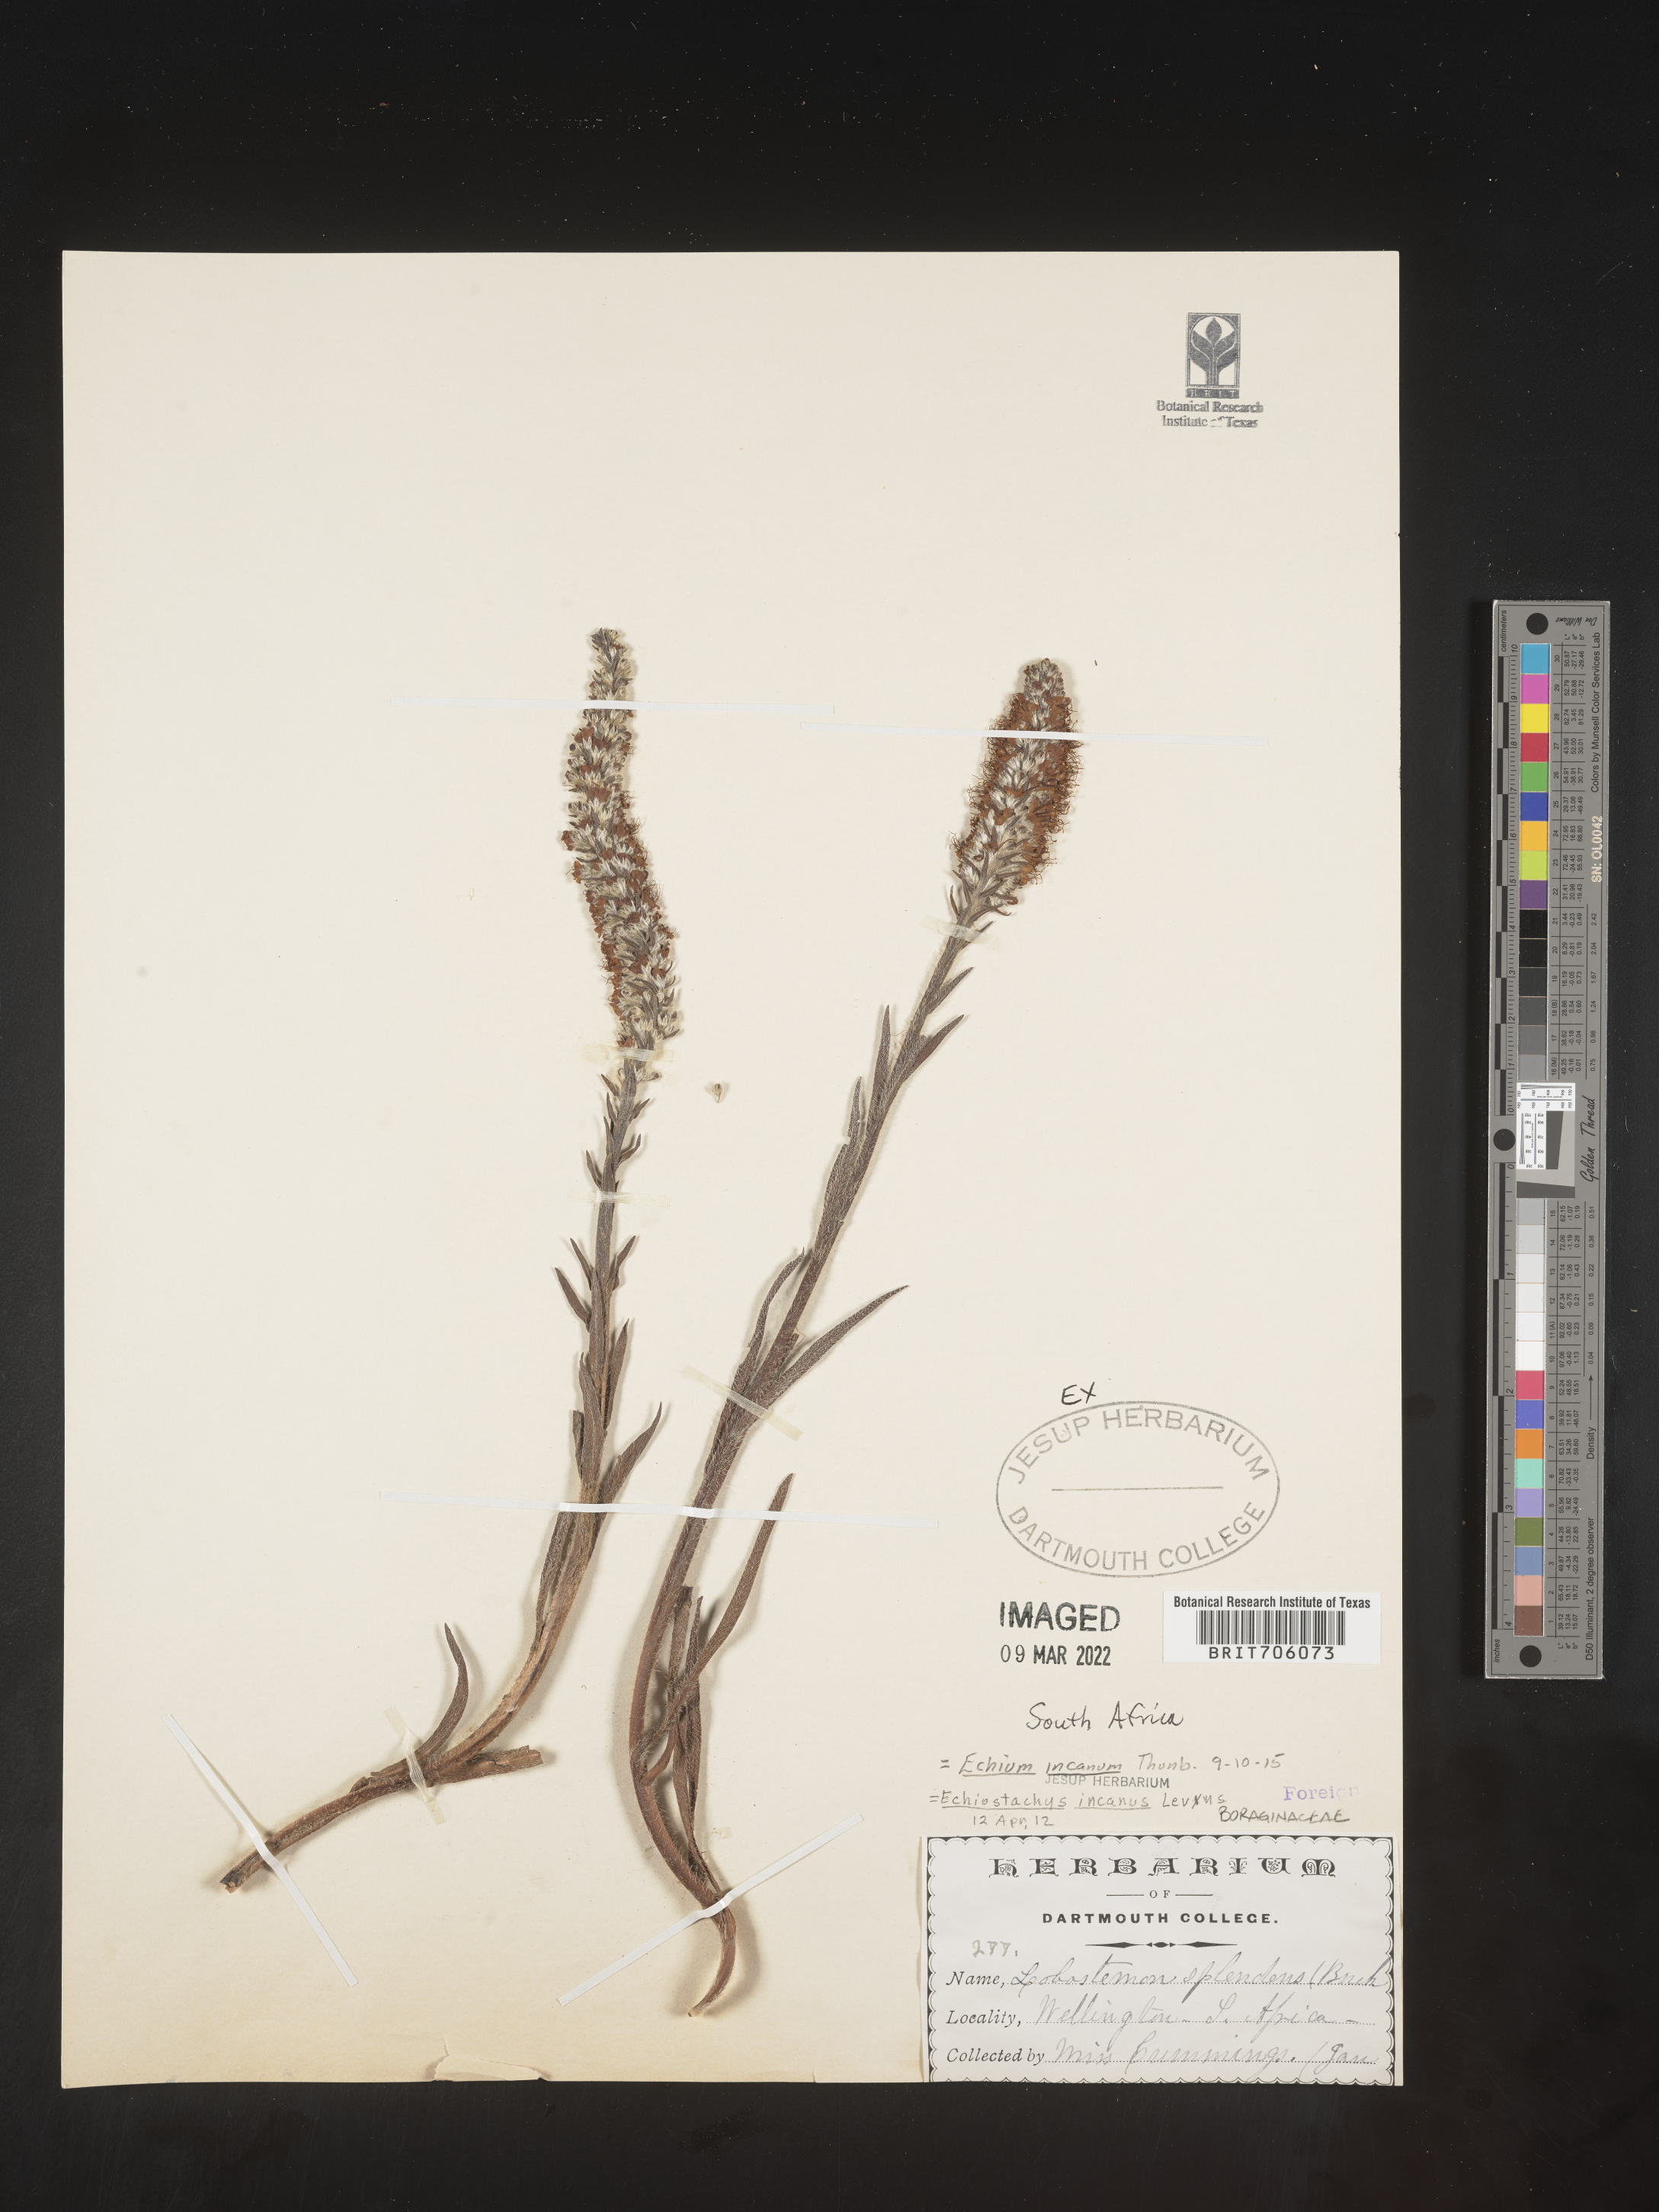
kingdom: Plantae
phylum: Tracheophyta
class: Magnoliopsida
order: Boraginales
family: Boraginaceae
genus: Echium
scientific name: Echium
